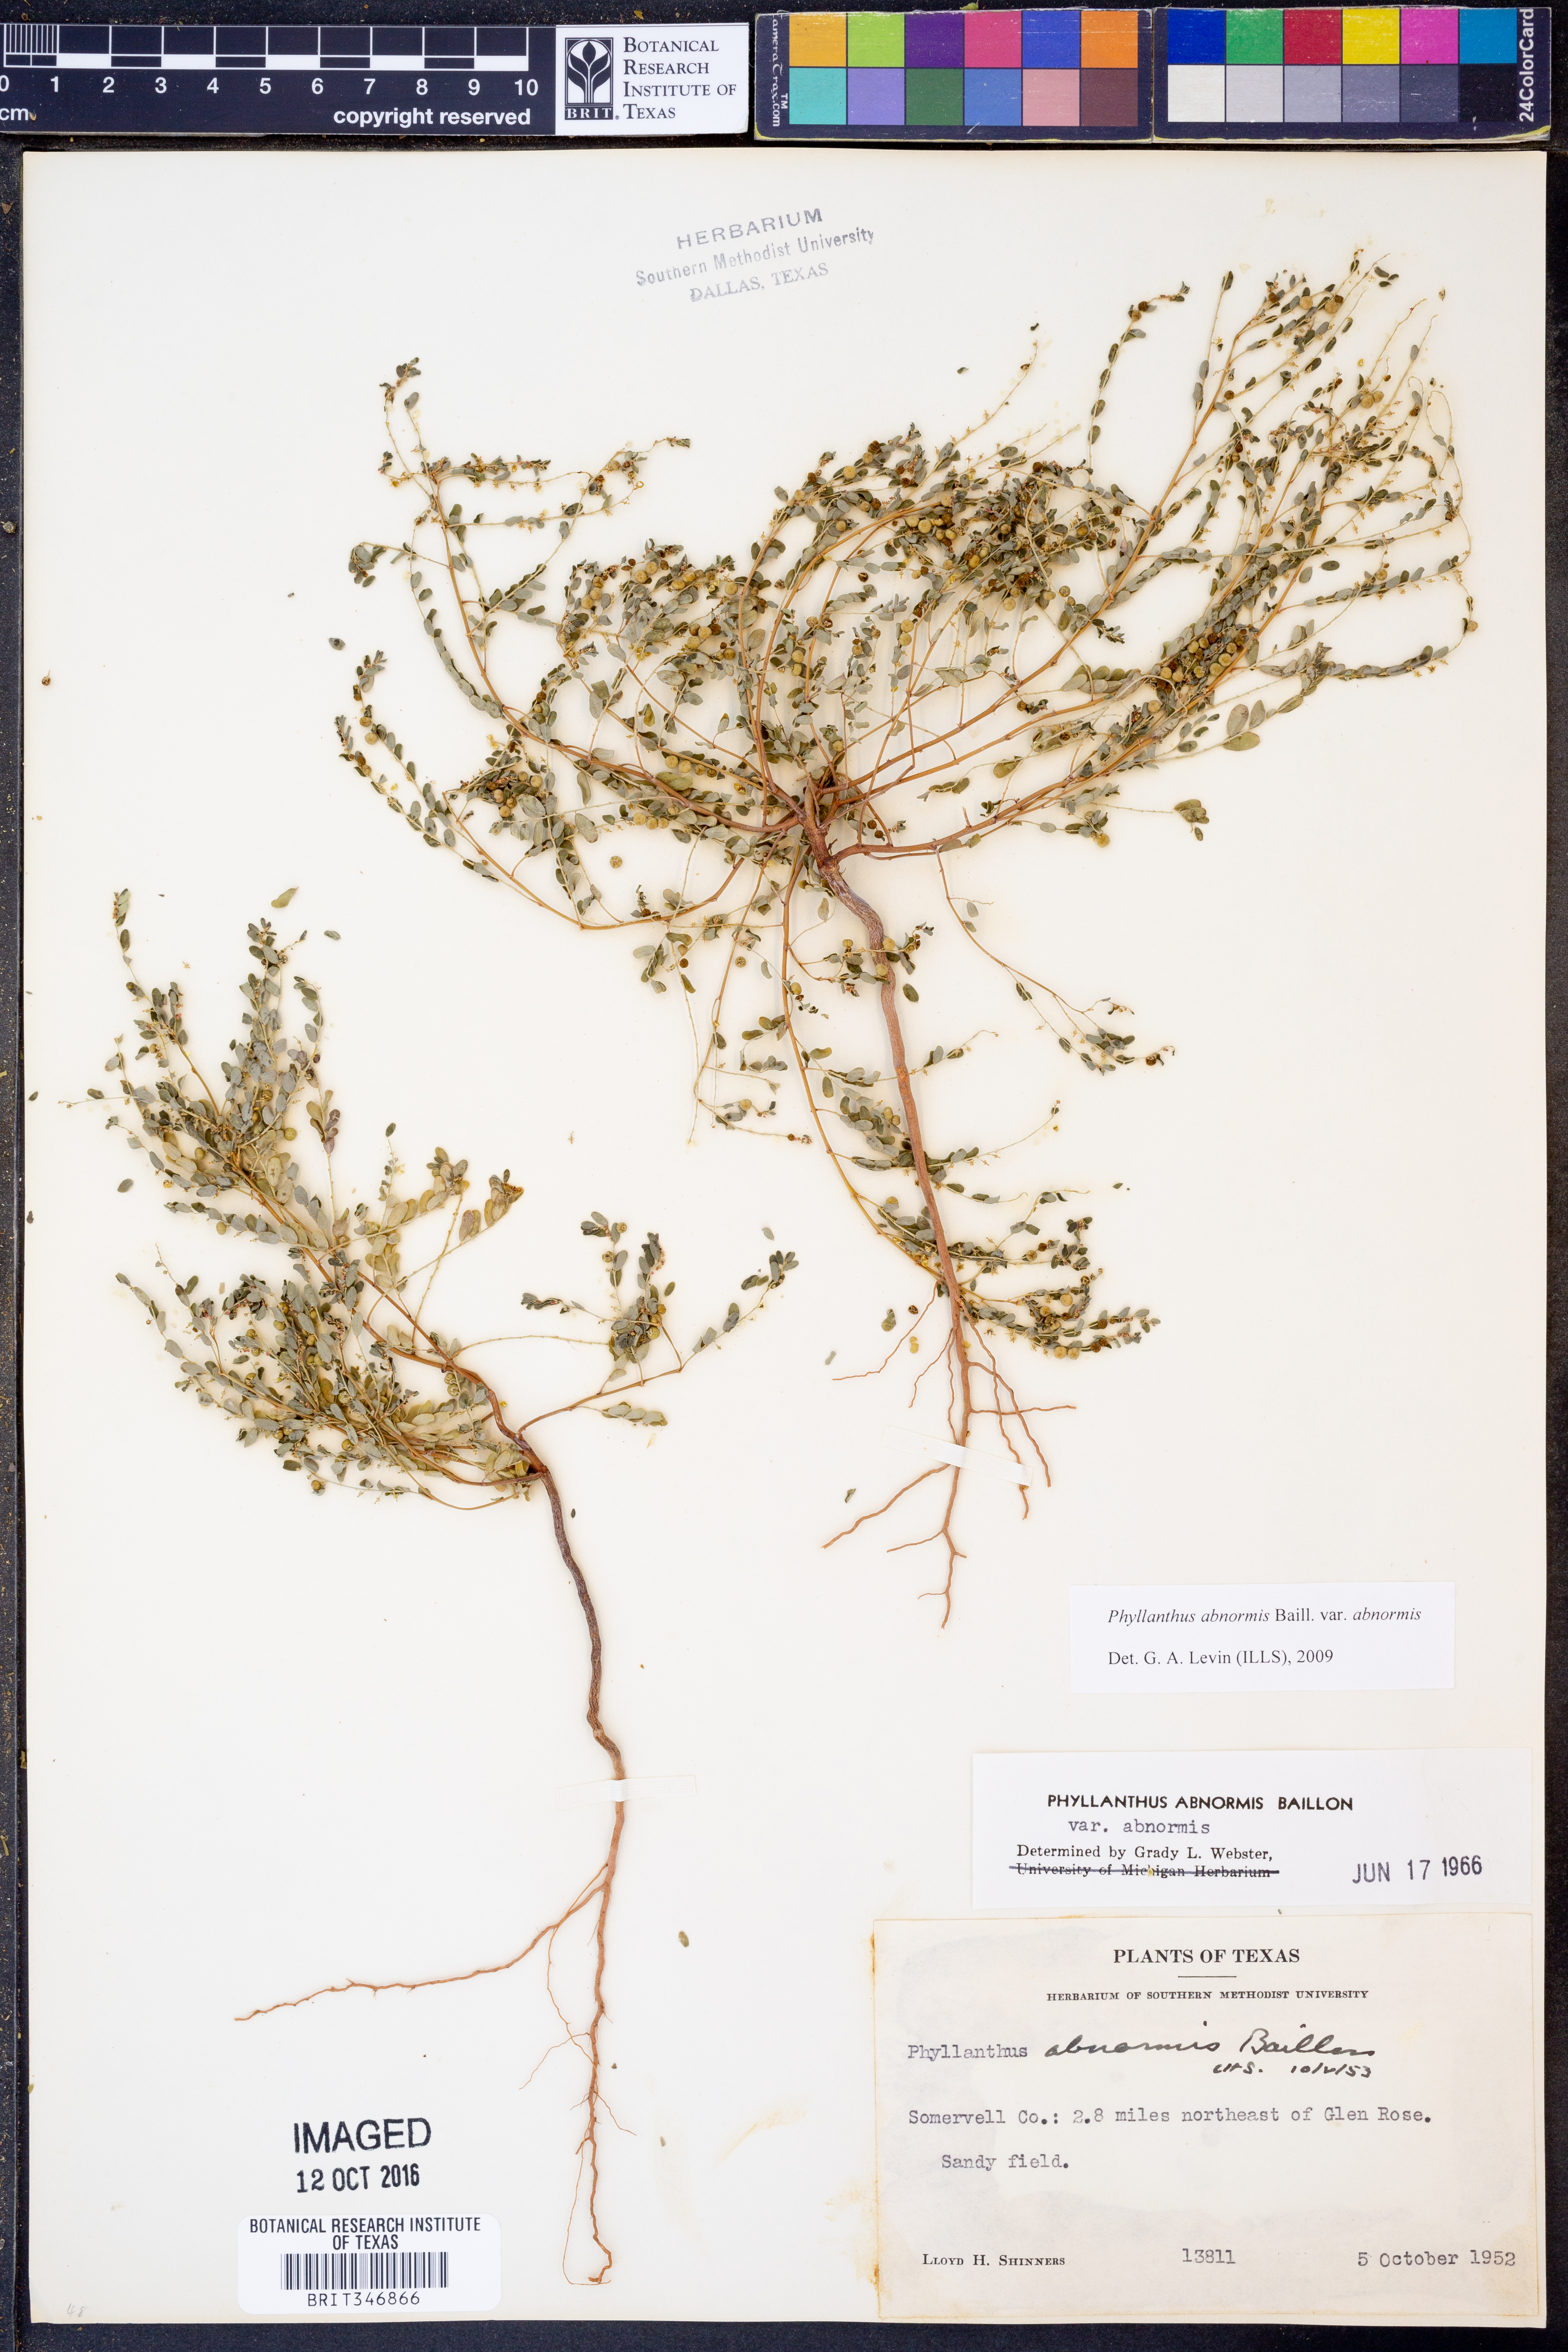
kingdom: Plantae
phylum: Tracheophyta
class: Magnoliopsida
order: Malpighiales
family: Phyllanthaceae
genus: Phyllanthus
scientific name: Phyllanthus abnormis
